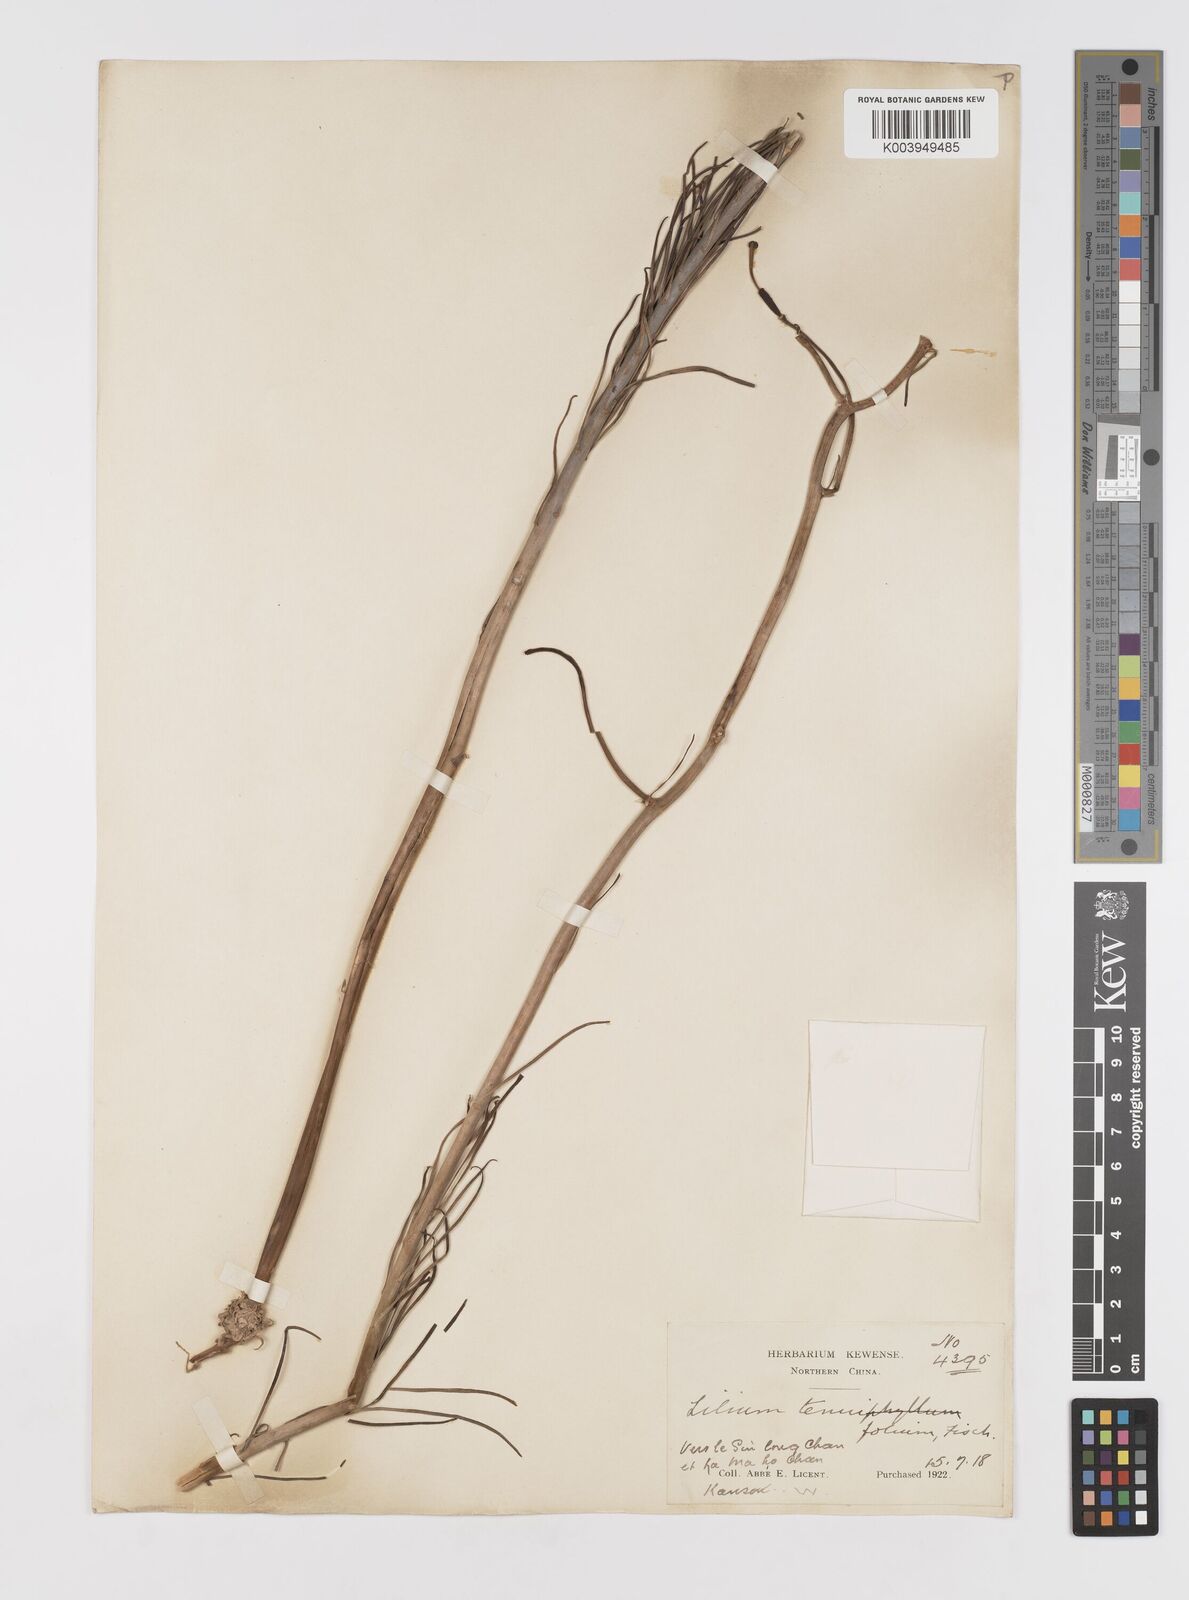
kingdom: Plantae
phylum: Tracheophyta
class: Liliopsida
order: Liliales
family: Liliaceae
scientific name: Liliaceae
